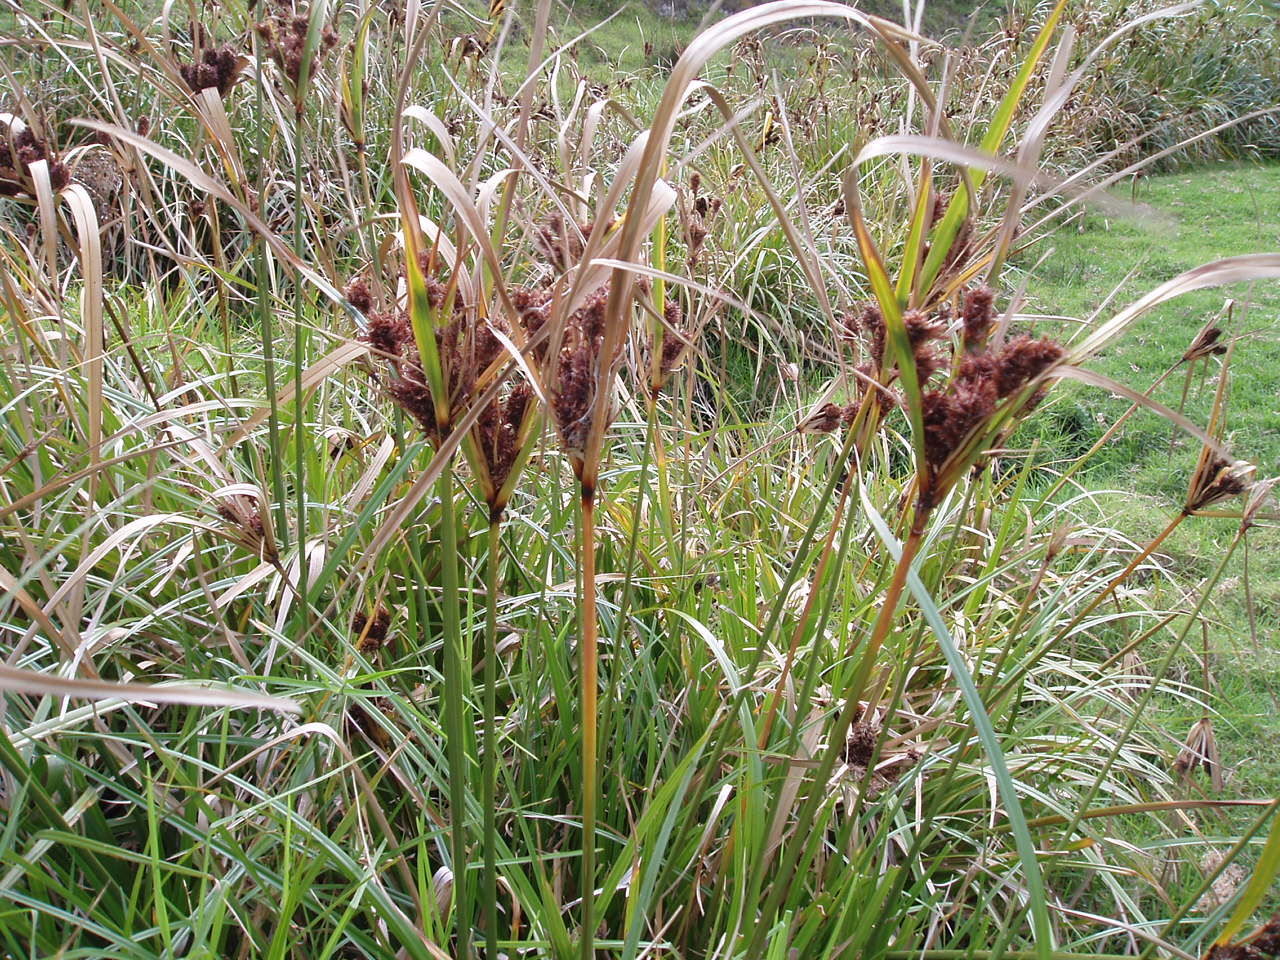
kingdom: Plantae
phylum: Tracheophyta
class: Liliopsida
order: Poales
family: Cyperaceae
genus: Cyperus
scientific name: Cyperus
